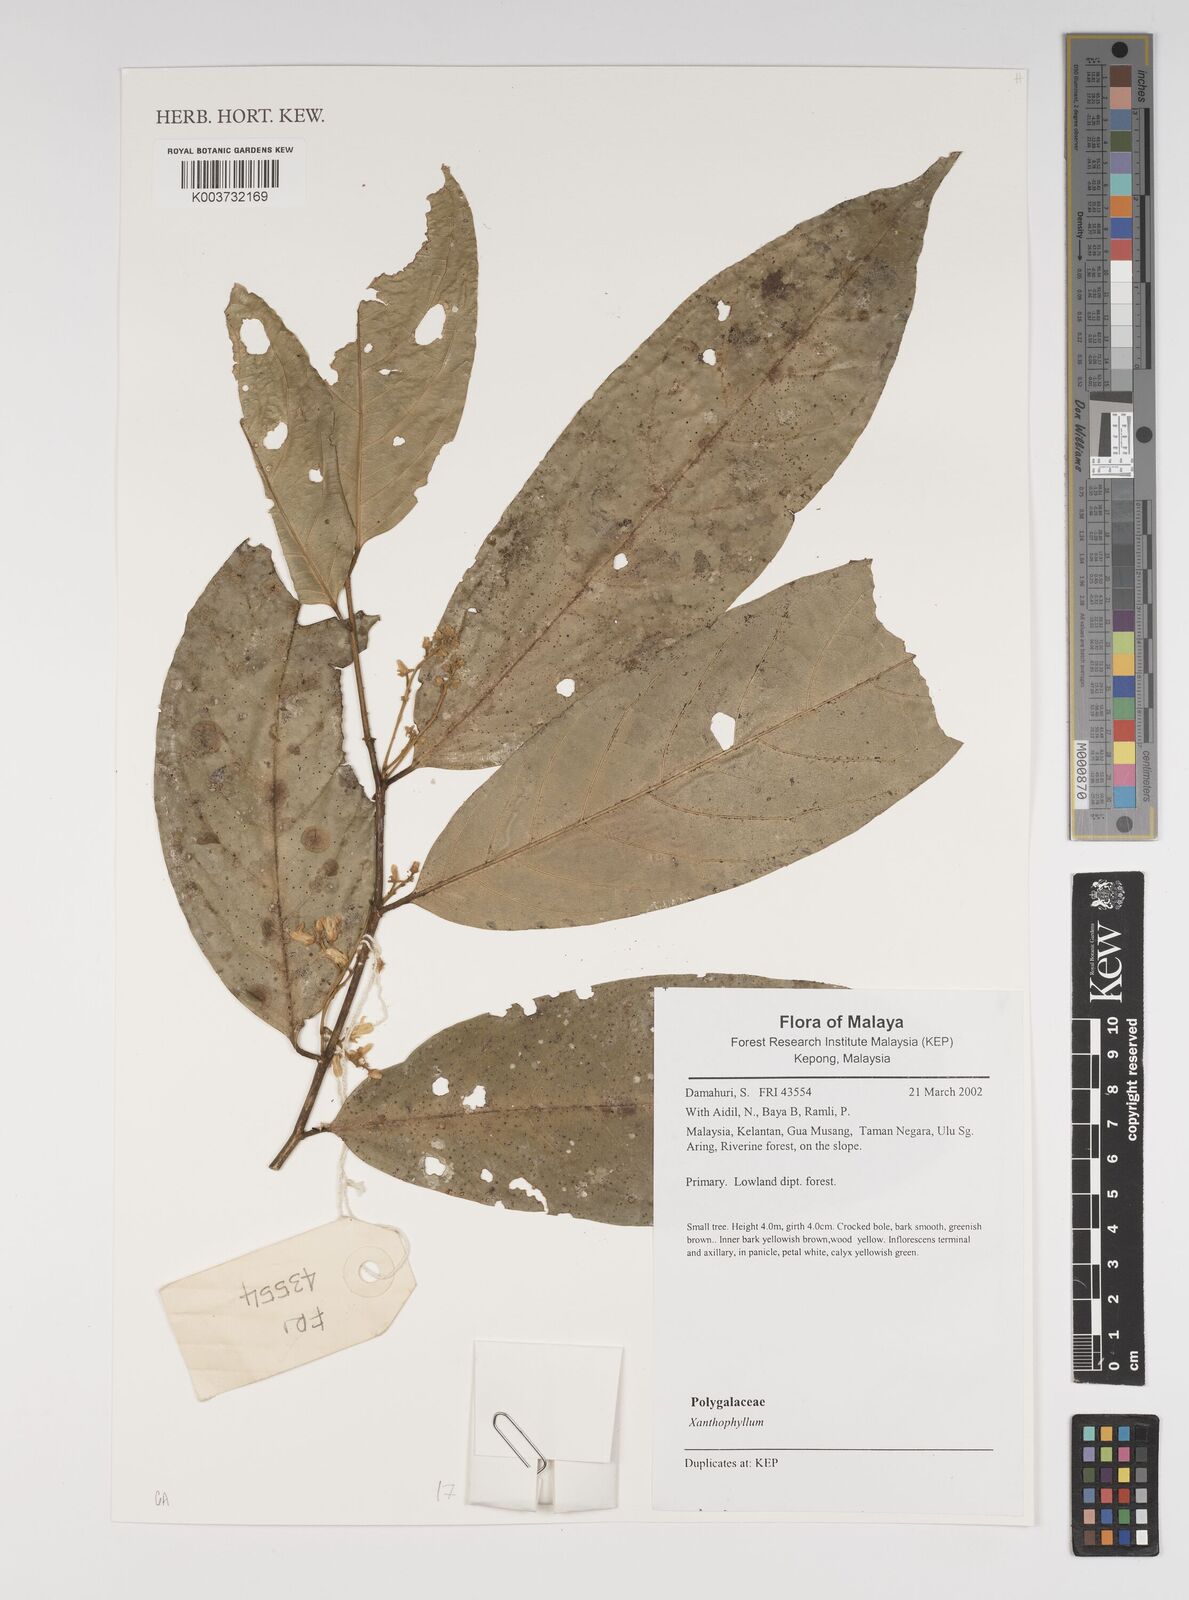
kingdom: Plantae
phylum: Tracheophyta
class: Magnoliopsida
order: Fabales
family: Polygalaceae
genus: Xanthophyllum
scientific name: Xanthophyllum
